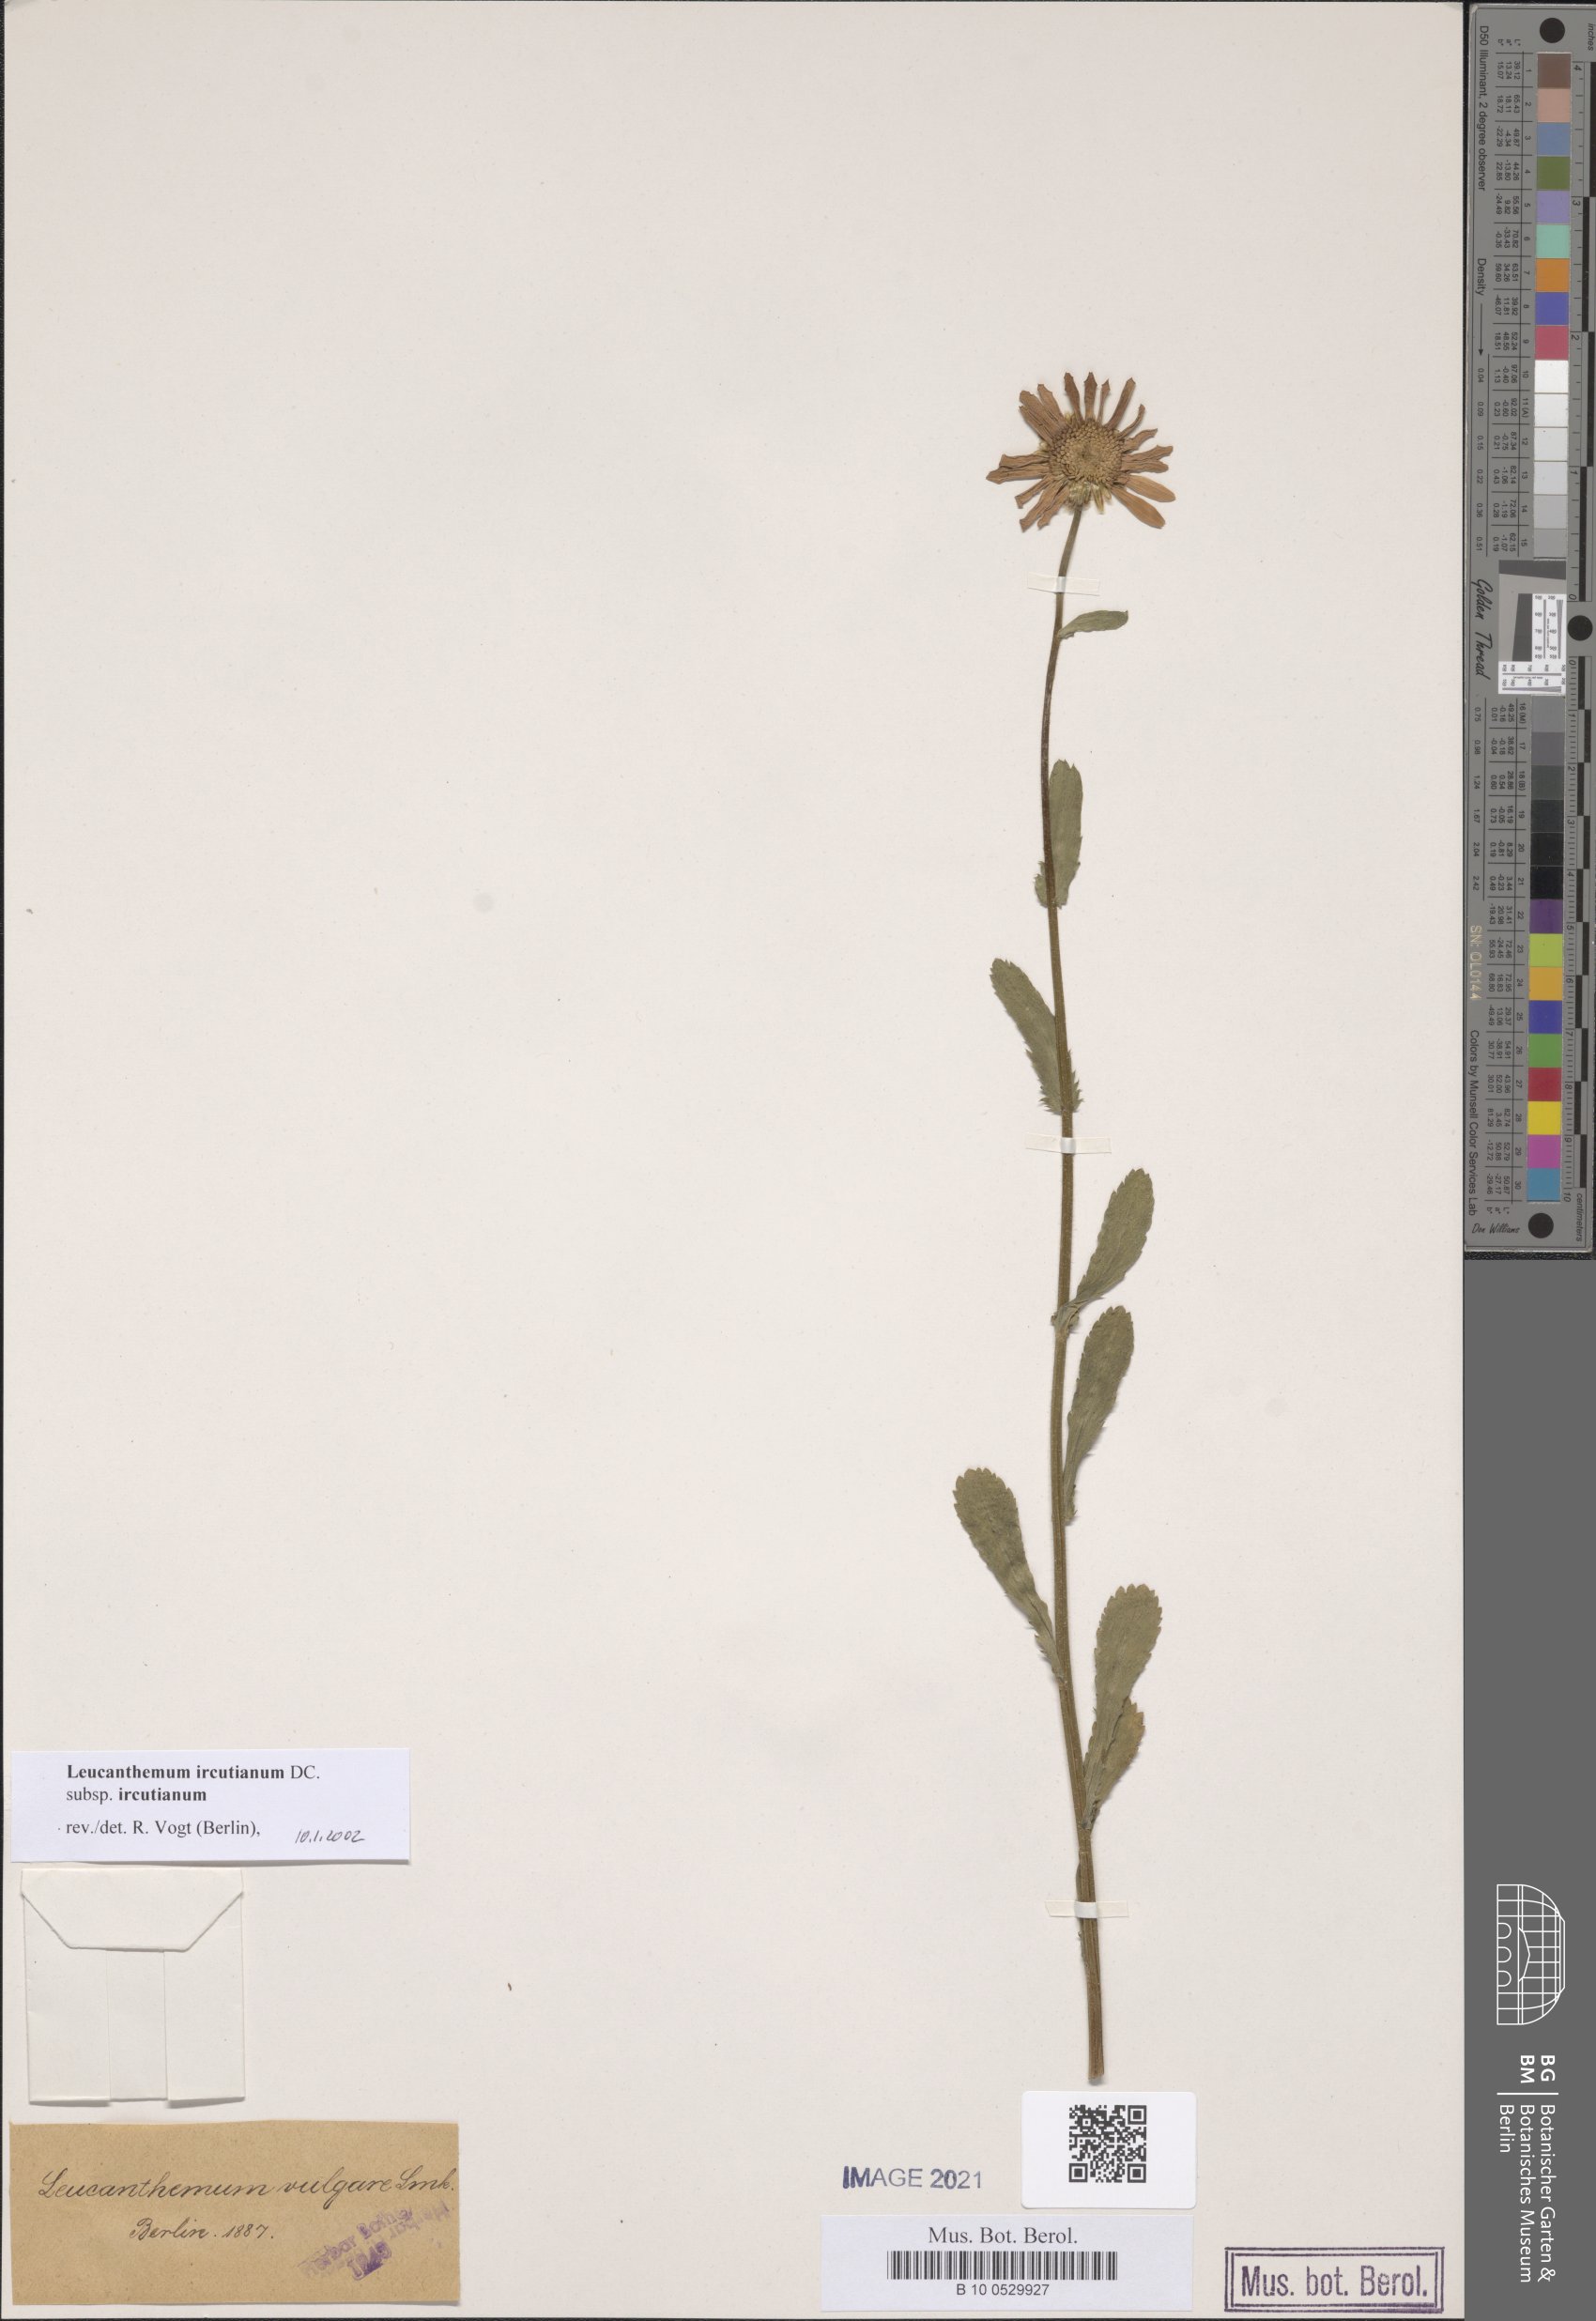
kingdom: Plantae
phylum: Tracheophyta
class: Magnoliopsida
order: Asterales
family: Asteraceae
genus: Leucanthemum
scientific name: Leucanthemum ircutianum
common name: Daisy
